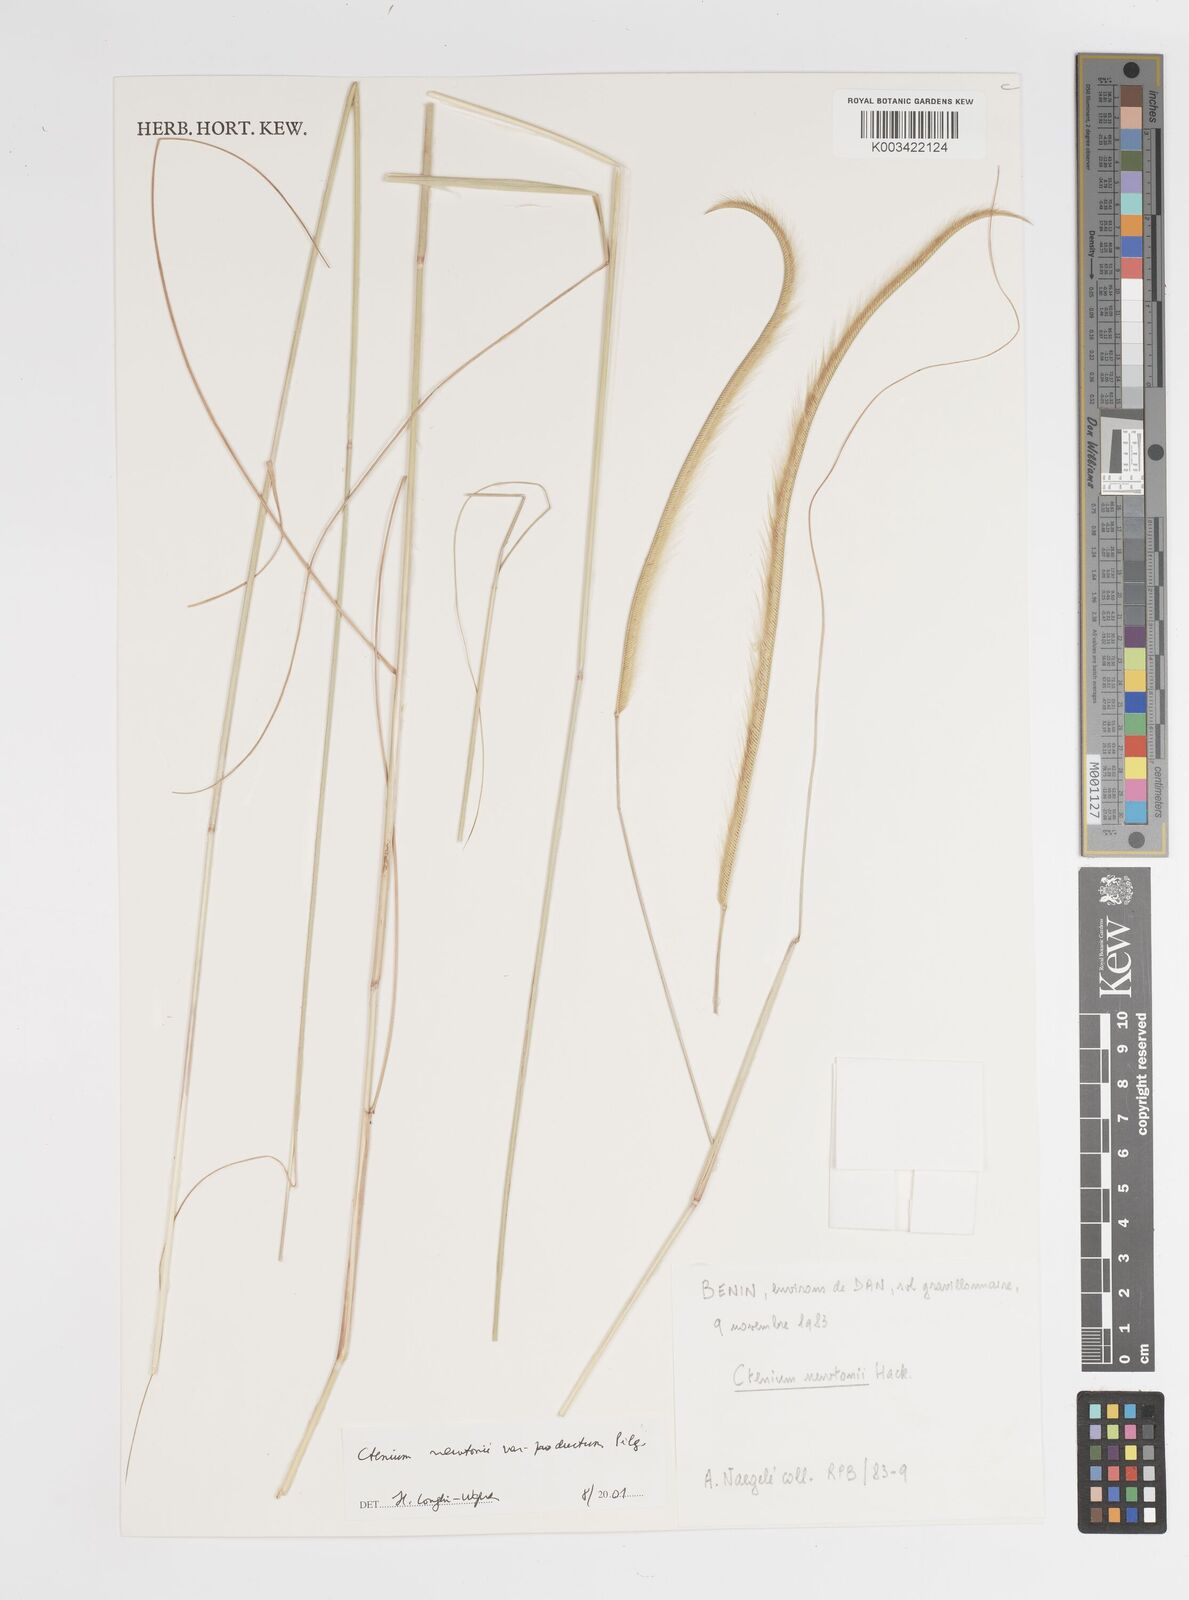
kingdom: Plantae
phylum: Tracheophyta
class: Liliopsida
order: Poales
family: Poaceae
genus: Ctenium
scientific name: Ctenium newtonii
